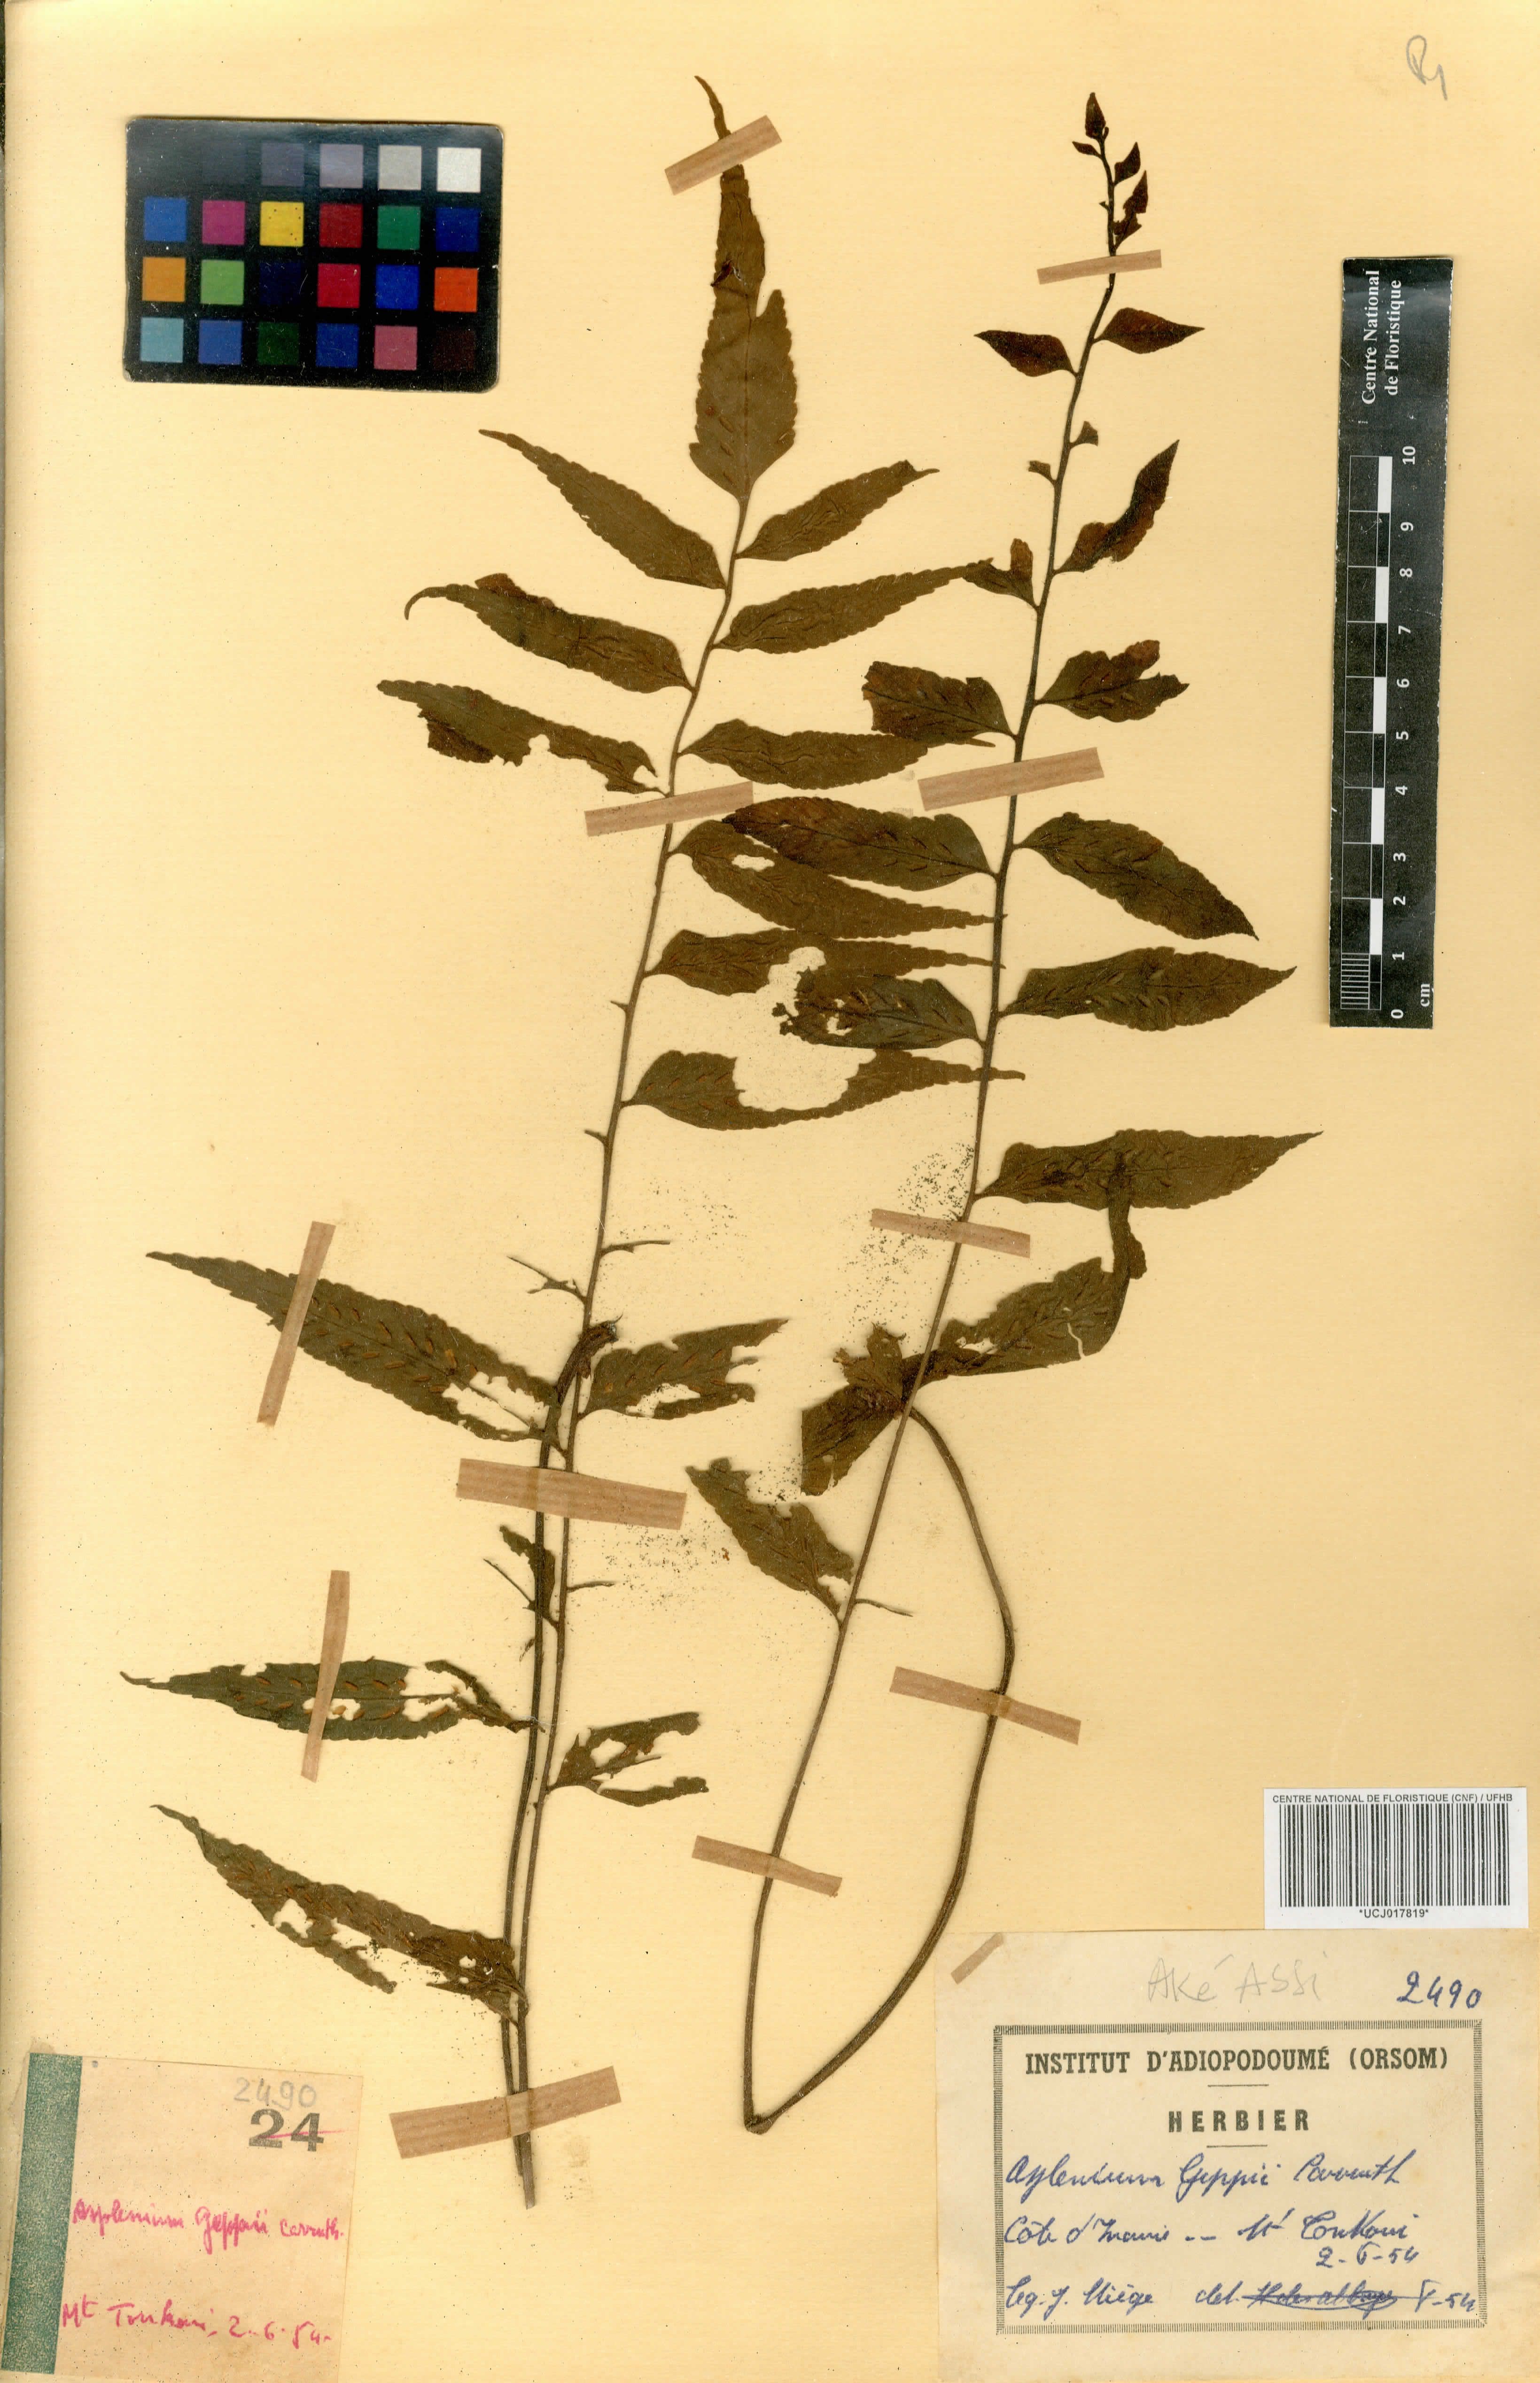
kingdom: Plantae
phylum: Tracheophyta
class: Polypodiopsida
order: Polypodiales
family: Aspleniaceae
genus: Asplenium
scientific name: Asplenium anisophyllum
